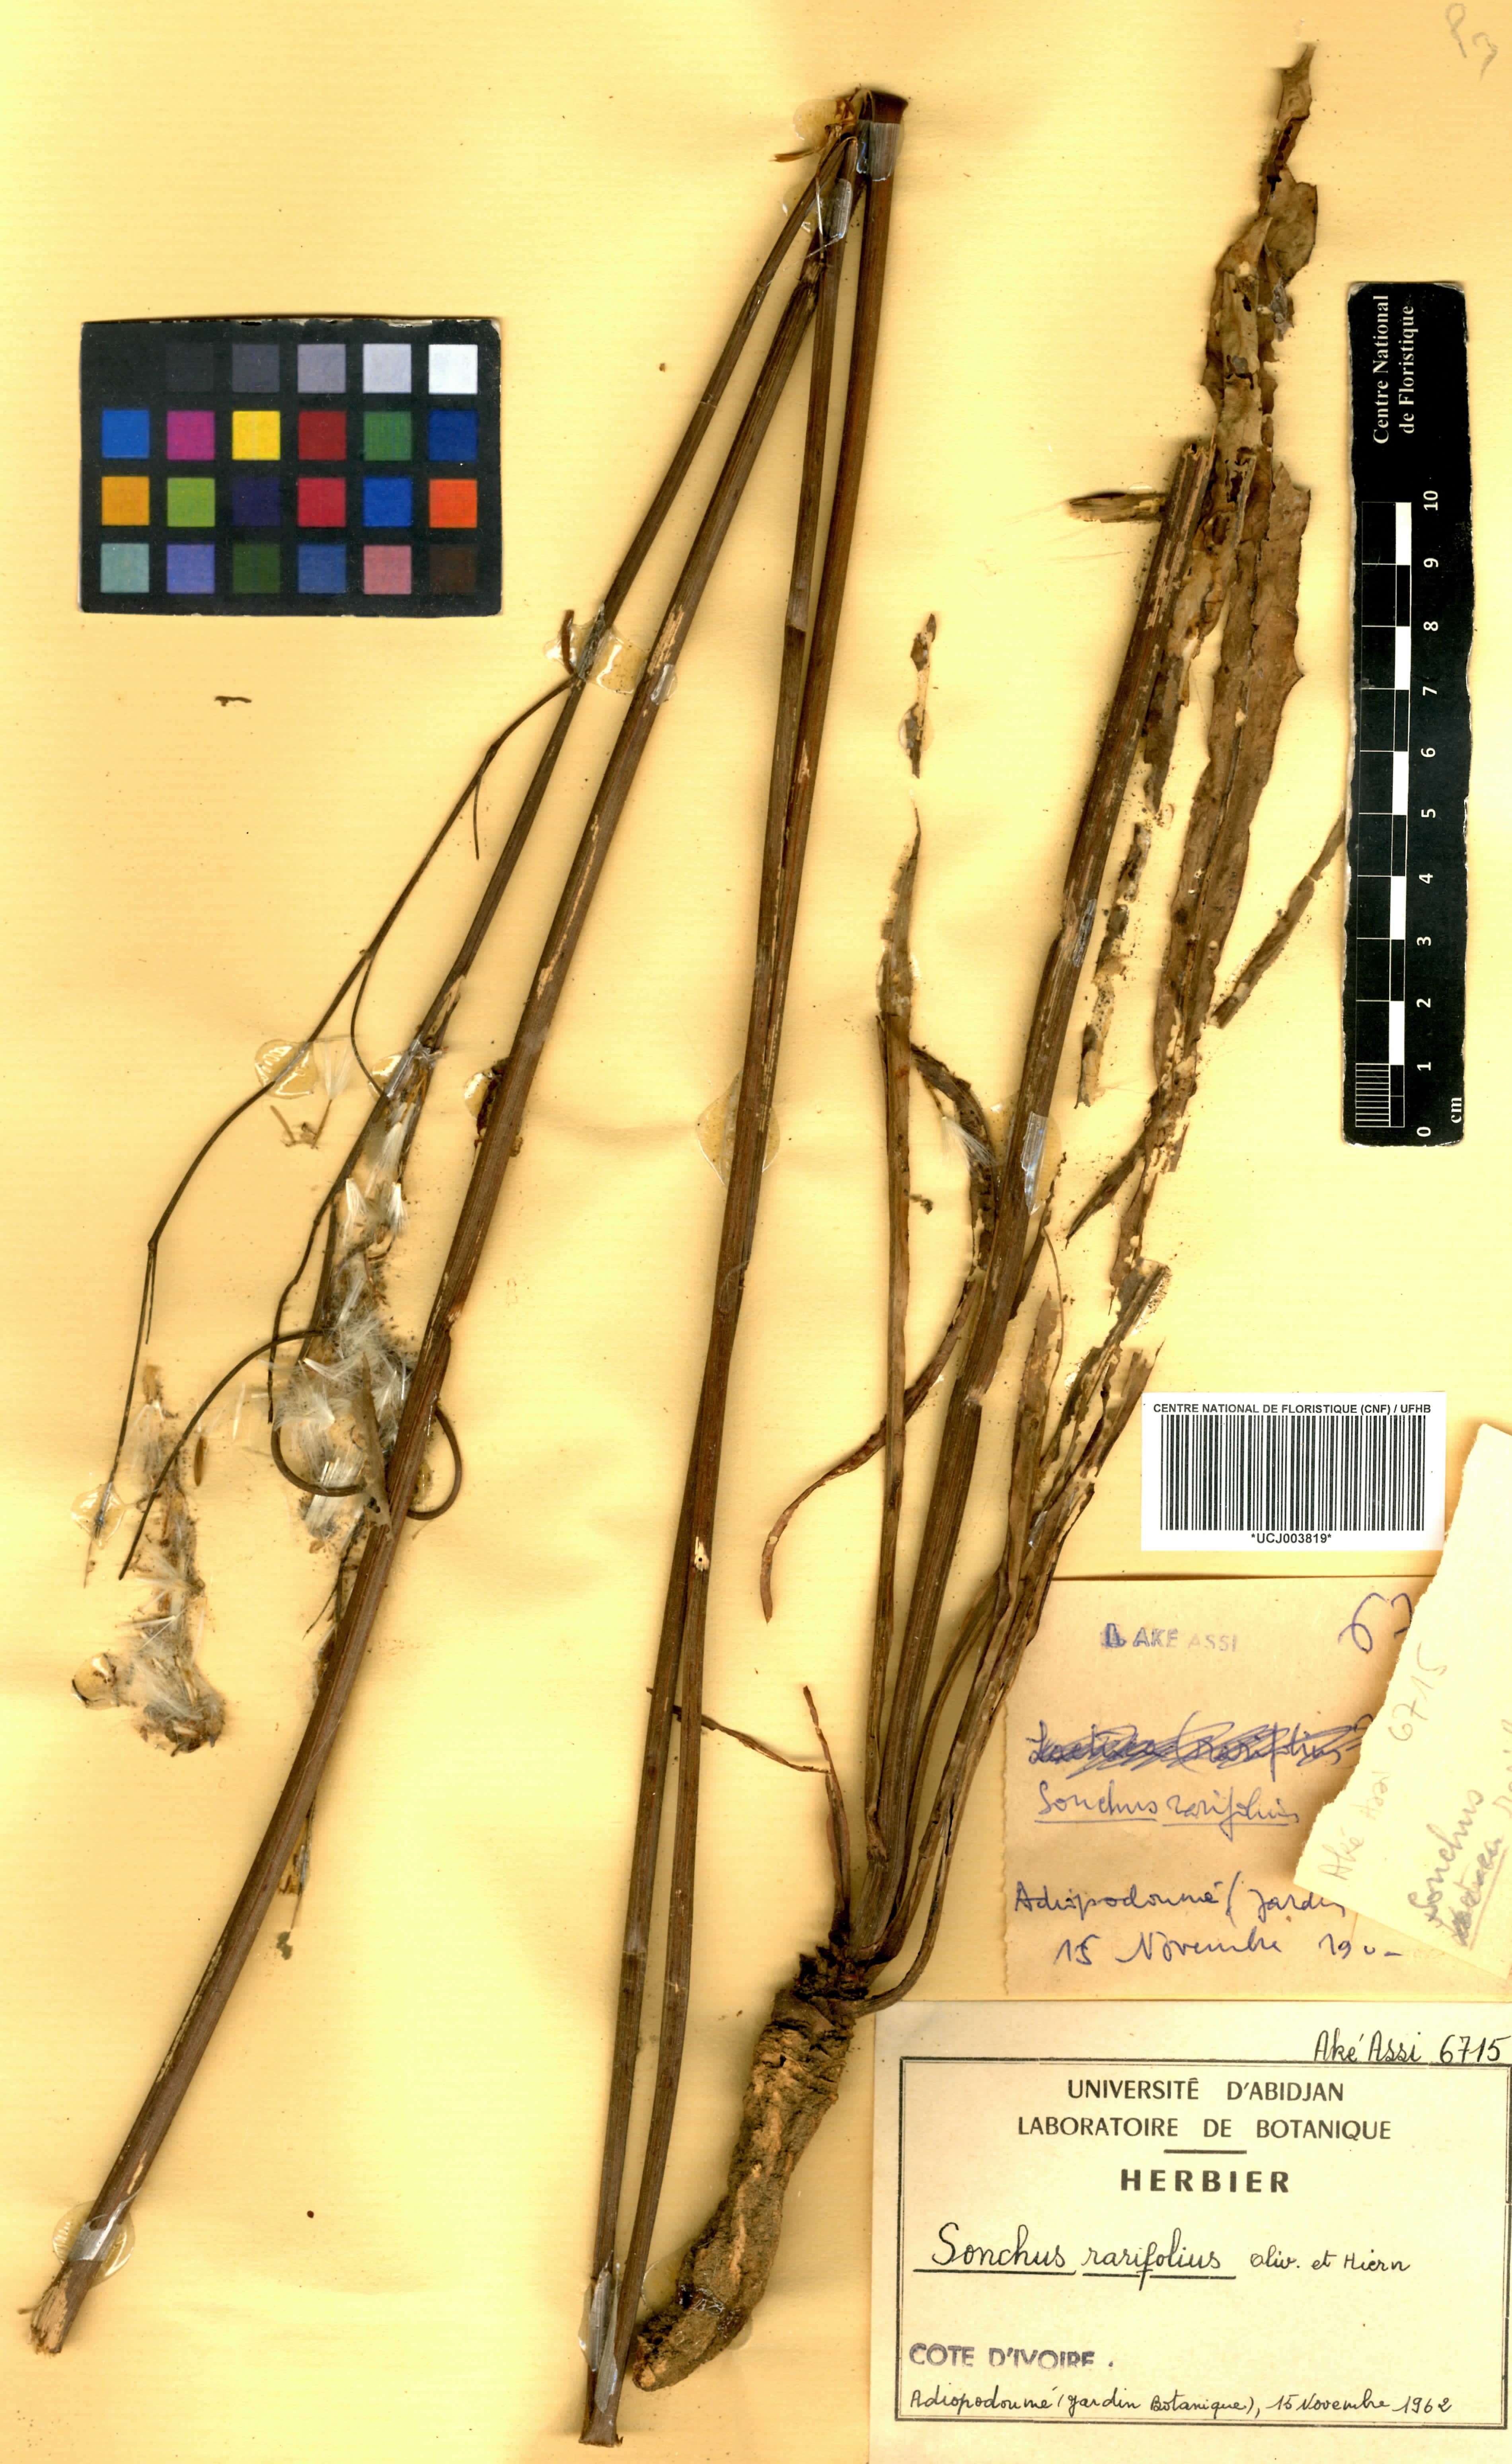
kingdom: Plantae
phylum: Tracheophyta
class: Magnoliopsida
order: Asterales
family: Asteraceae
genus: Launaea
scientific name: Launaea rarifolia
